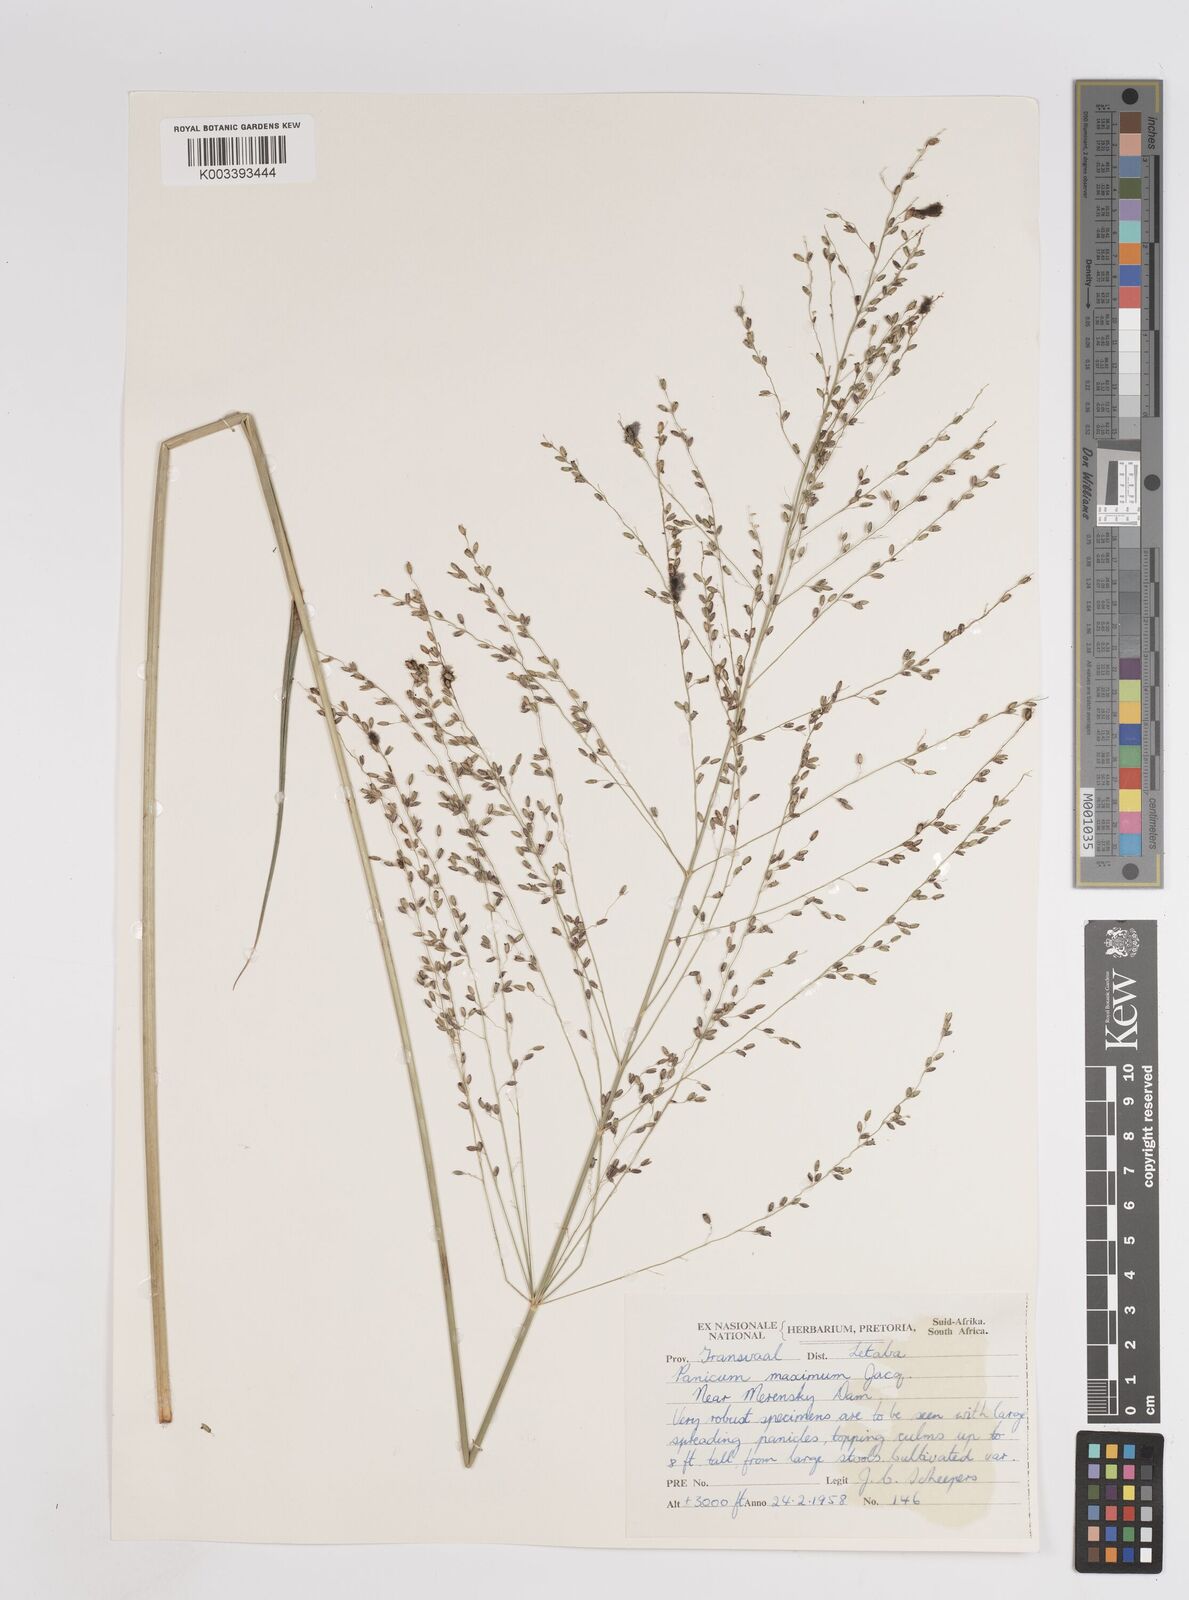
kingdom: Plantae
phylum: Tracheophyta
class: Liliopsida
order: Poales
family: Poaceae
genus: Megathyrsus
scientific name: Megathyrsus maximus
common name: Guineagrass
